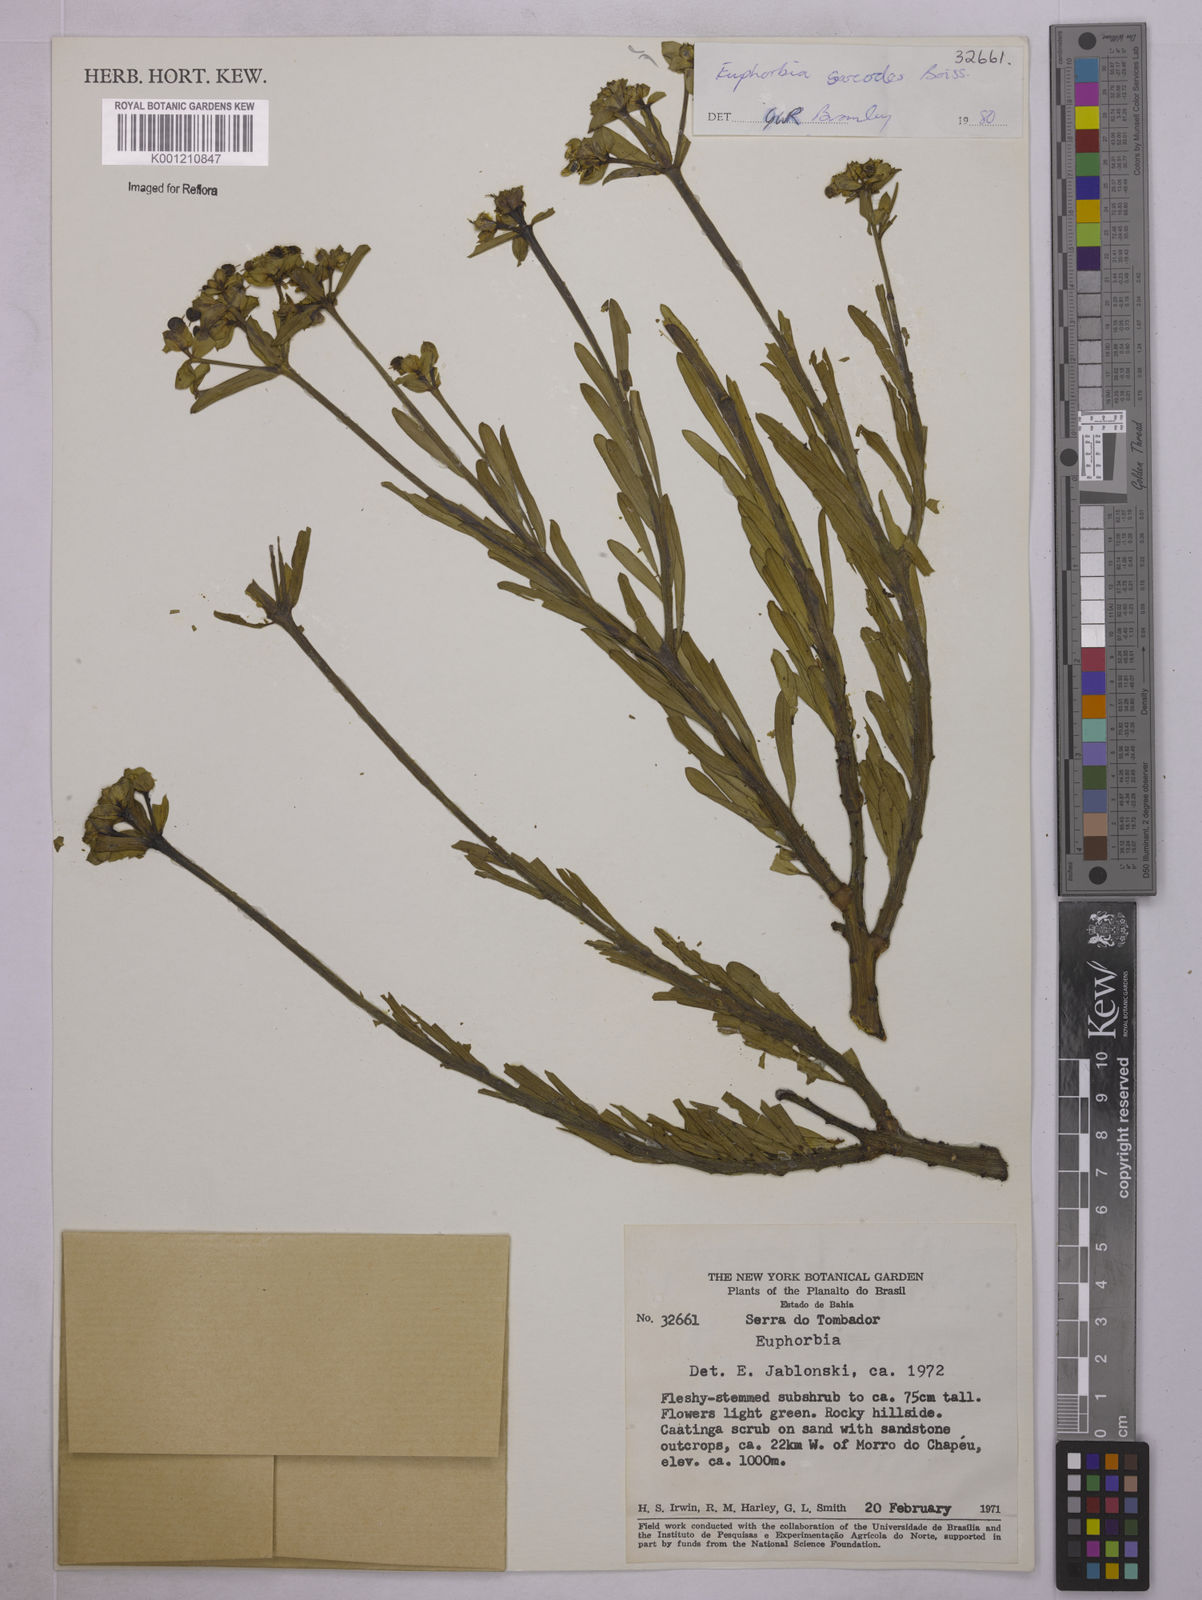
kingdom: Plantae
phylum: Tracheophyta
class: Magnoliopsida
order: Malpighiales
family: Euphorbiaceae
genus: Euphorbia
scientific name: Euphorbia sarcodes
